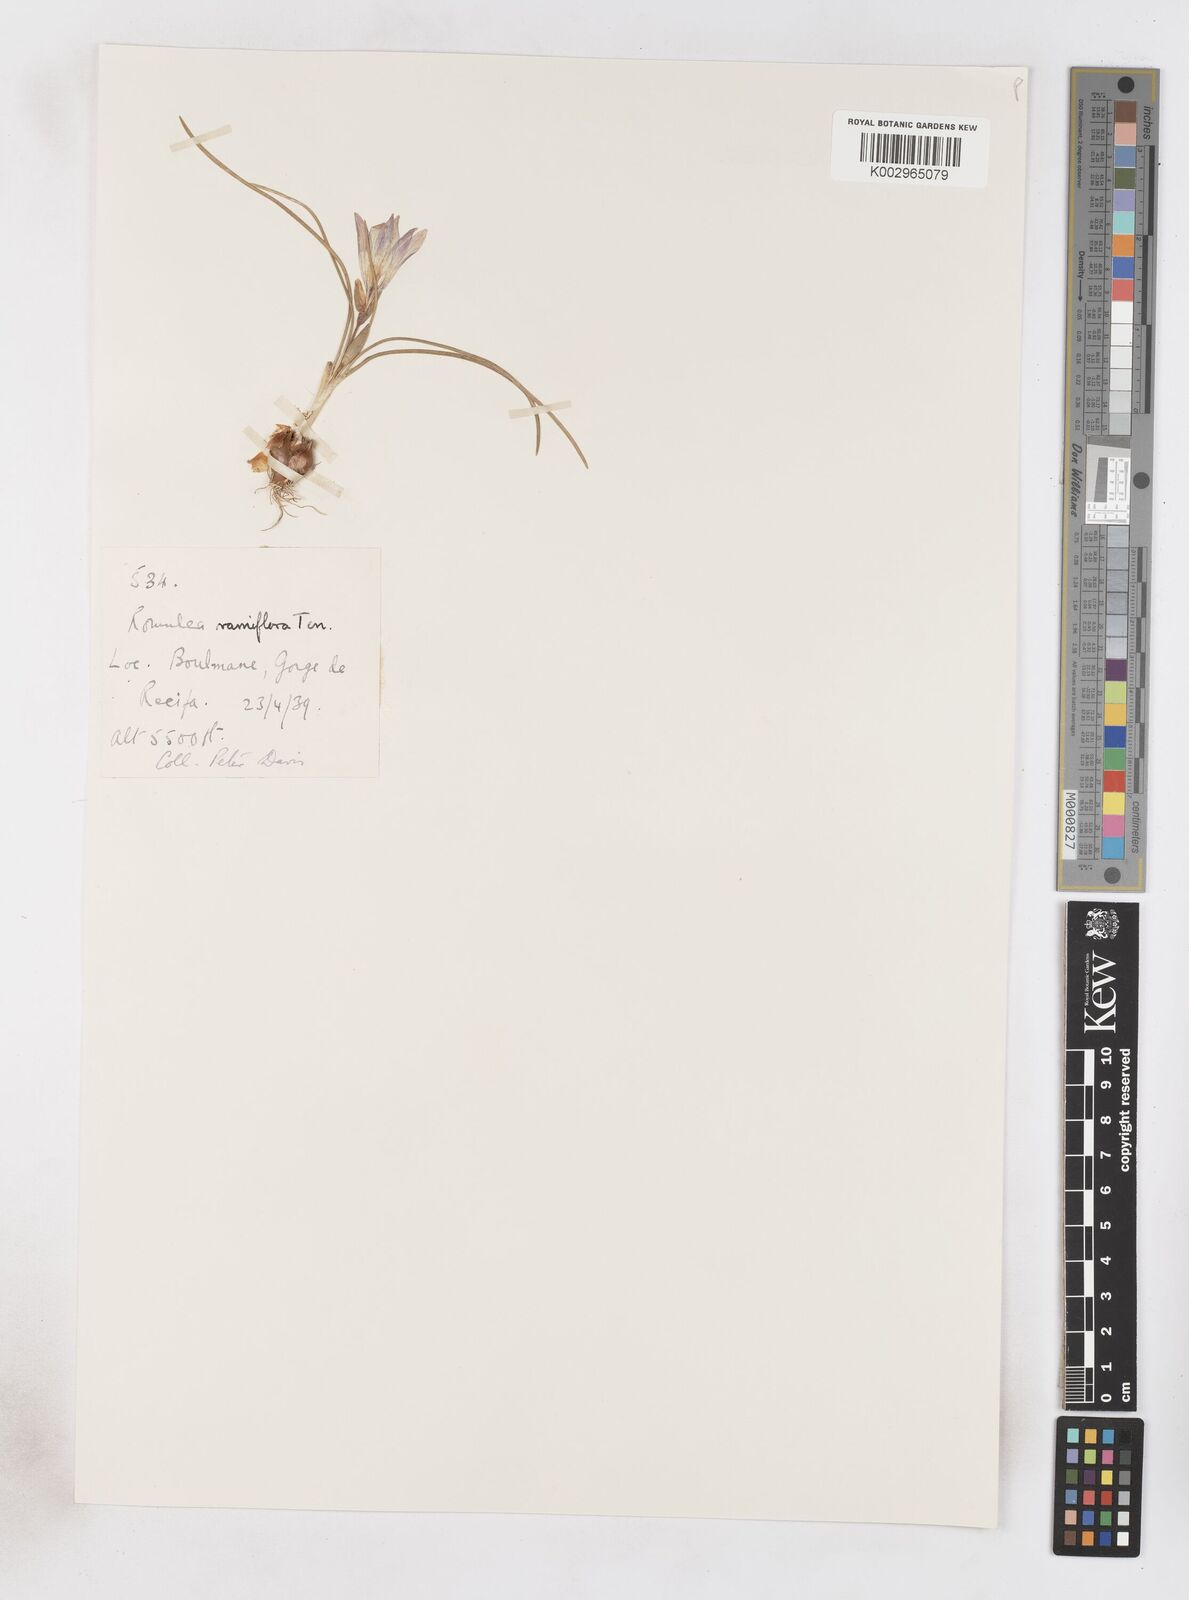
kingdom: Plantae
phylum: Tracheophyta
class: Liliopsida
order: Asparagales
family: Iridaceae
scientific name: Iridaceae
